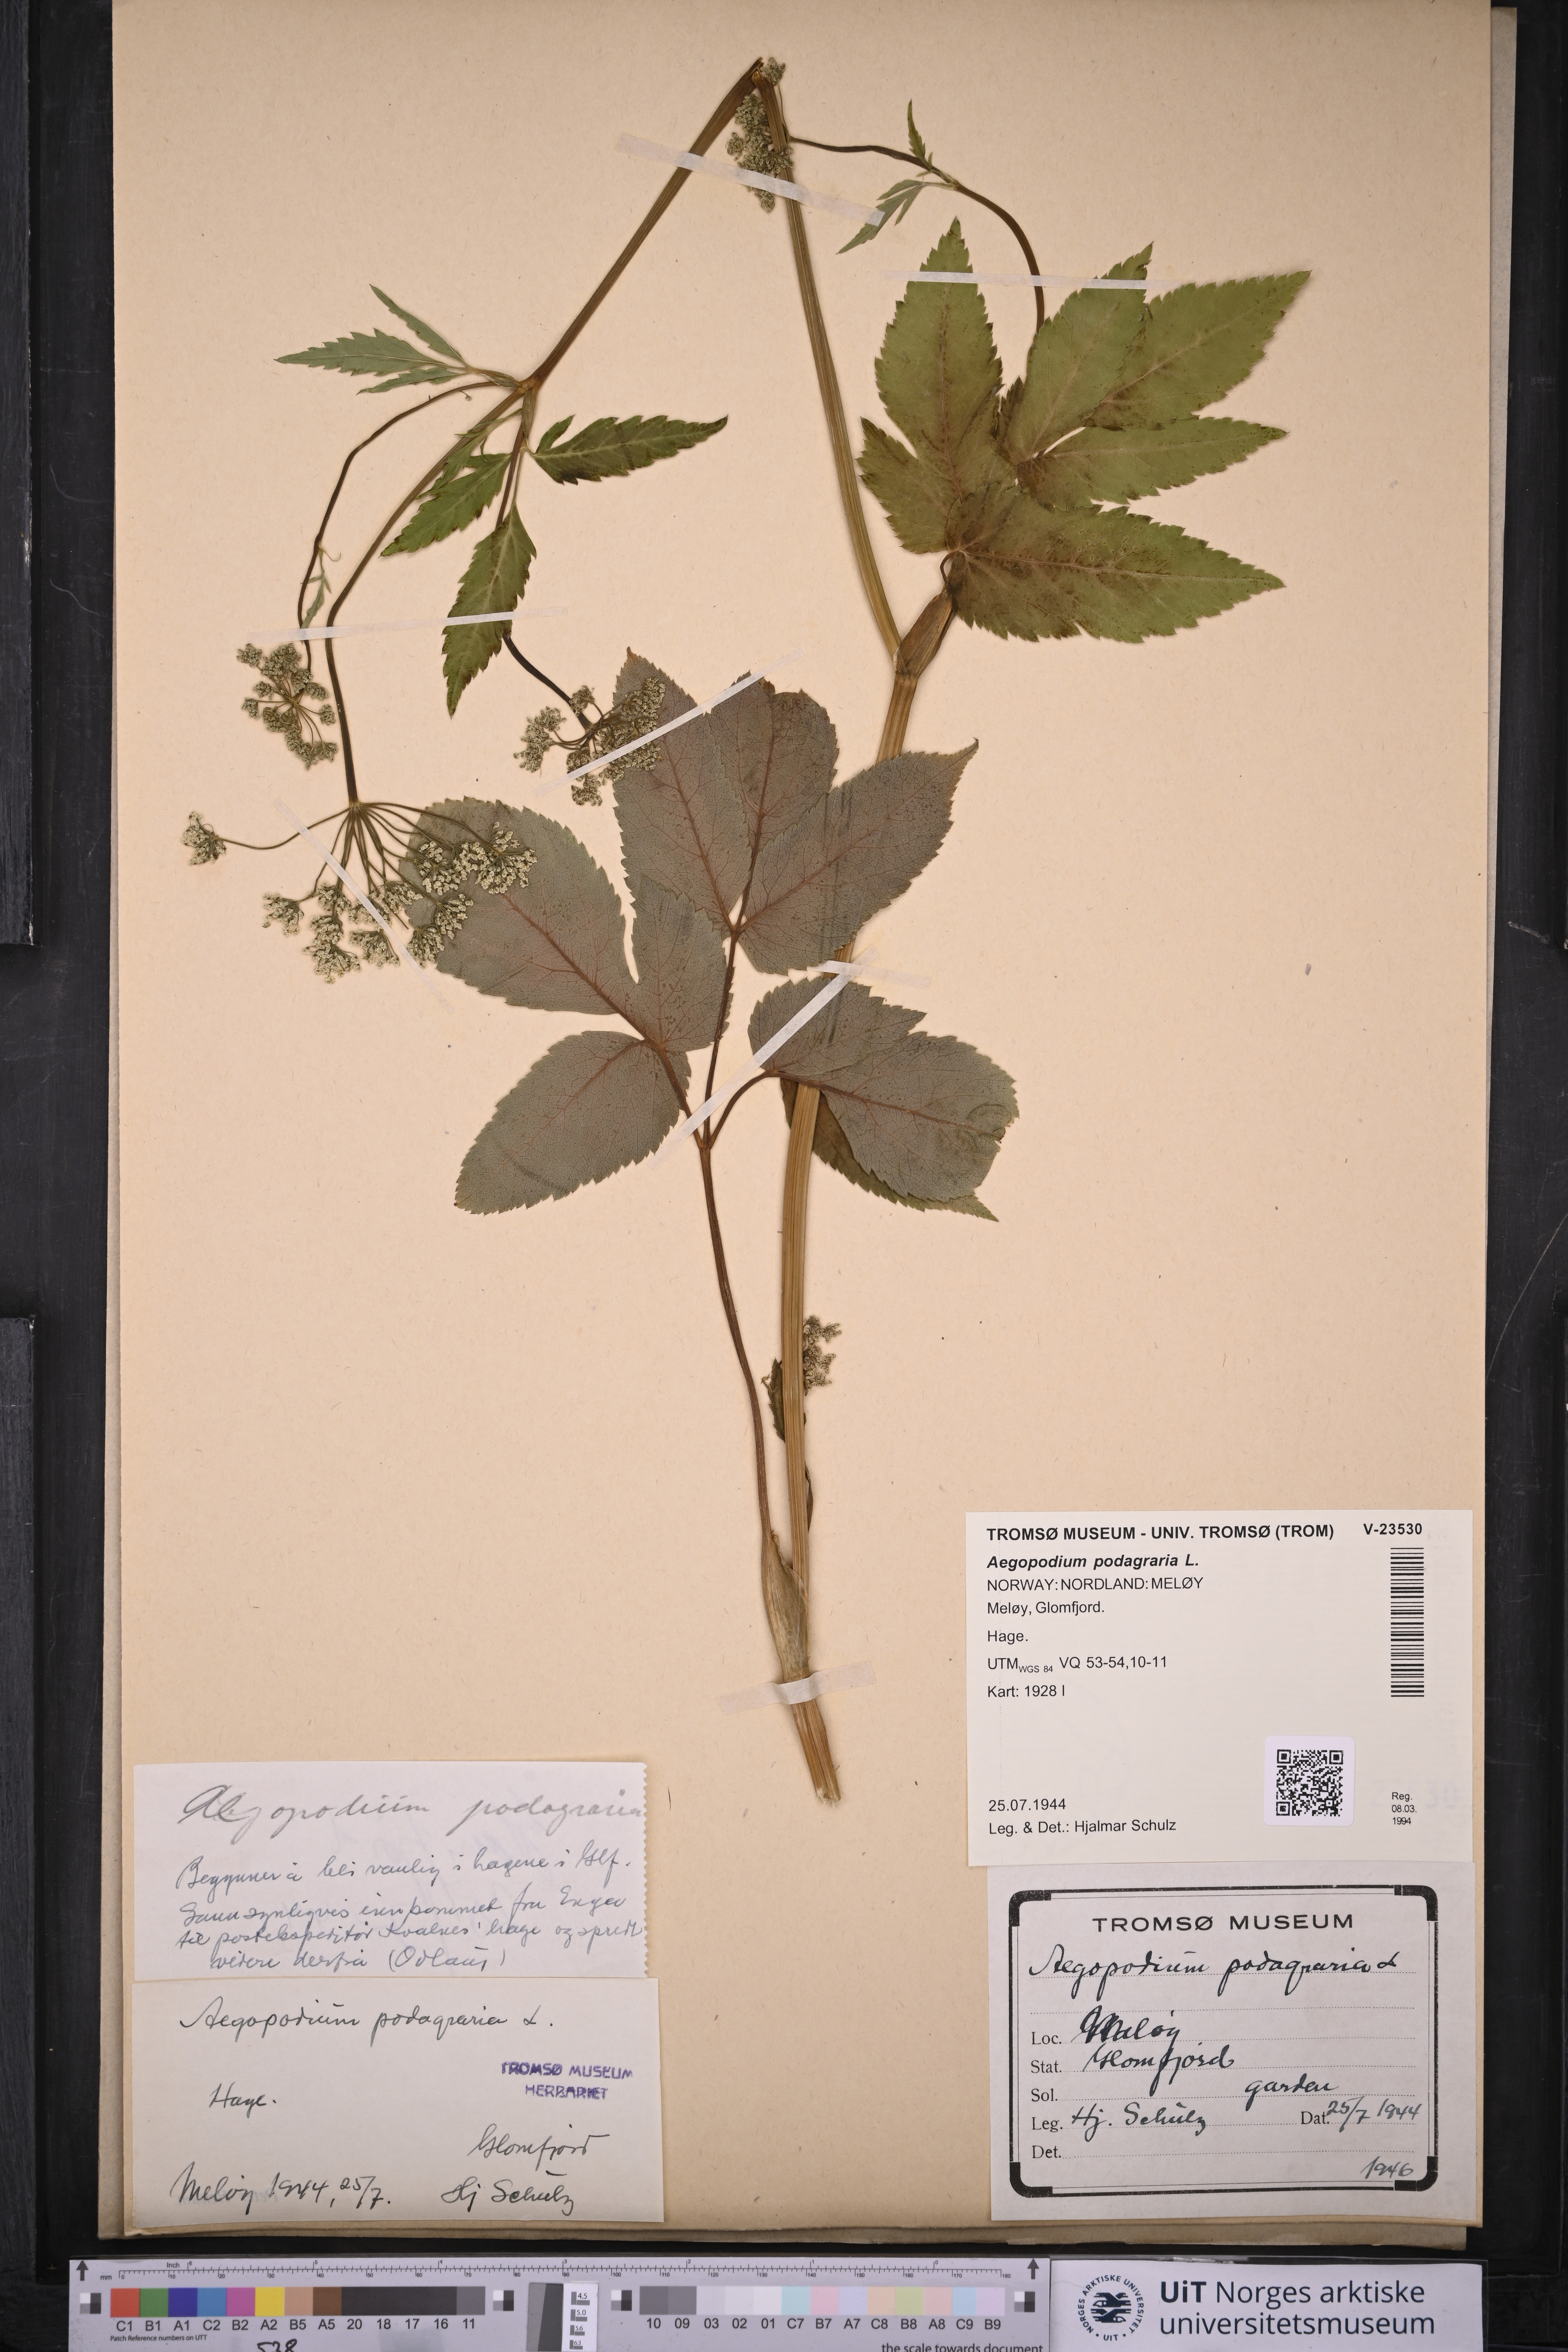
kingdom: Plantae
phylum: Tracheophyta
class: Magnoliopsida
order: Apiales
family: Apiaceae
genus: Aegopodium
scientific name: Aegopodium podagraria
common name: Ground-elder
